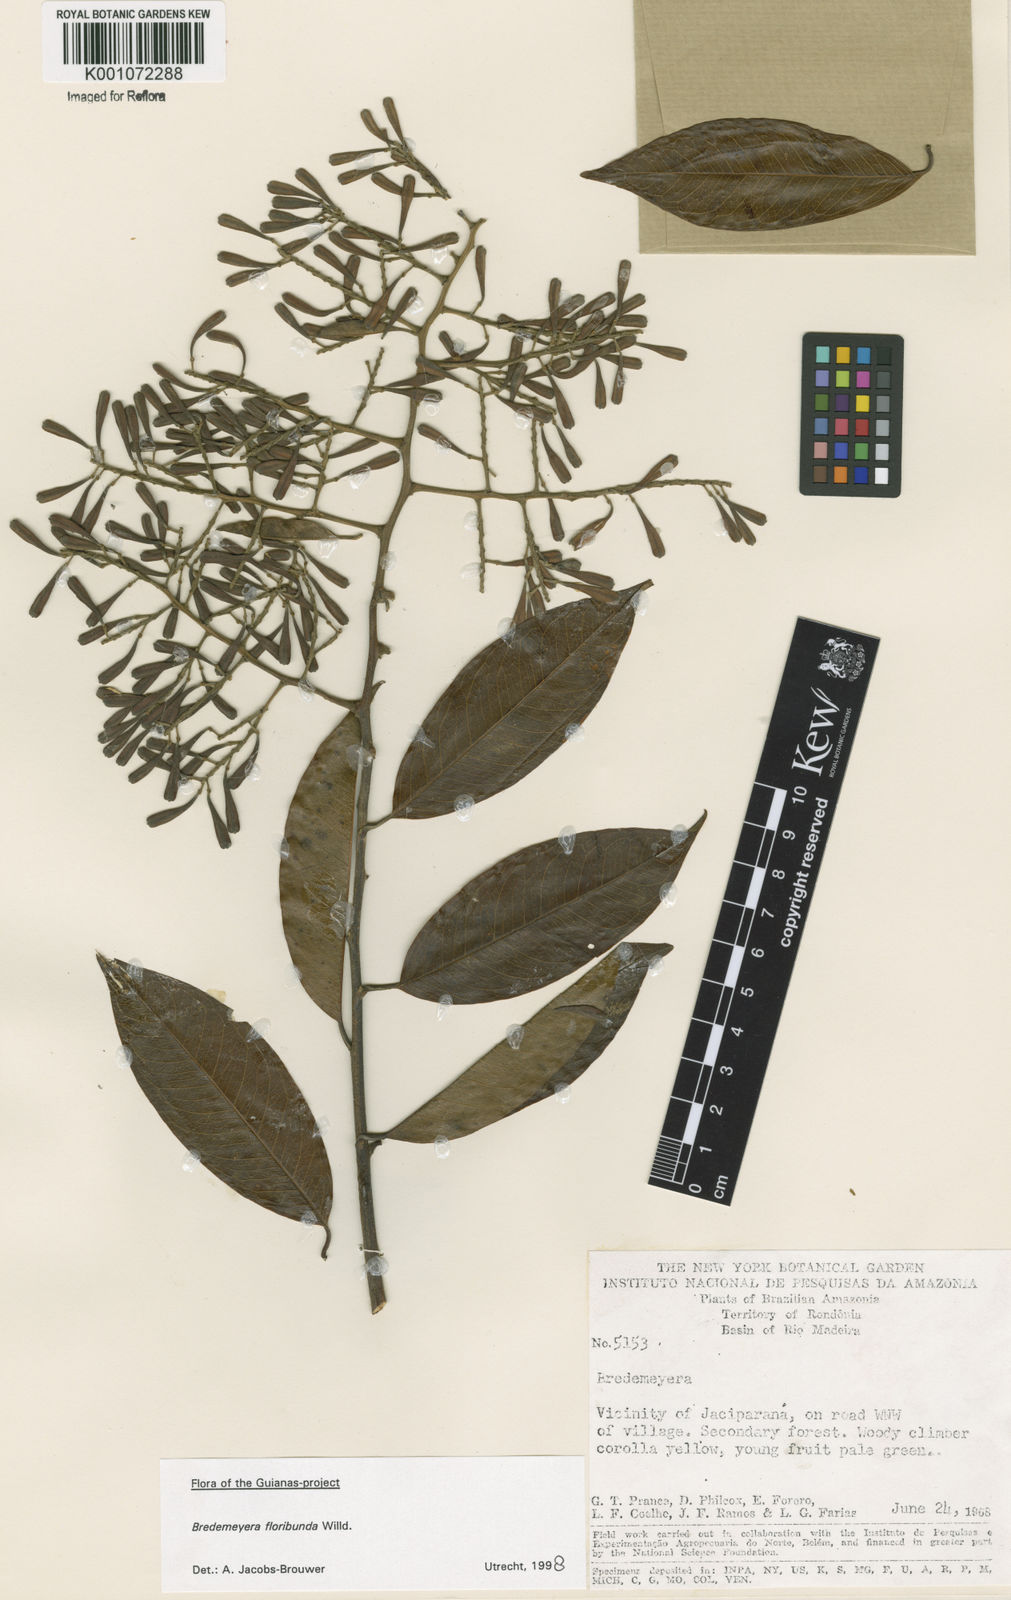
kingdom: Plantae
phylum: Tracheophyta
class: Magnoliopsida
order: Fabales
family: Polygalaceae
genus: Bredemeyera
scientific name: Bredemeyera floribunda
